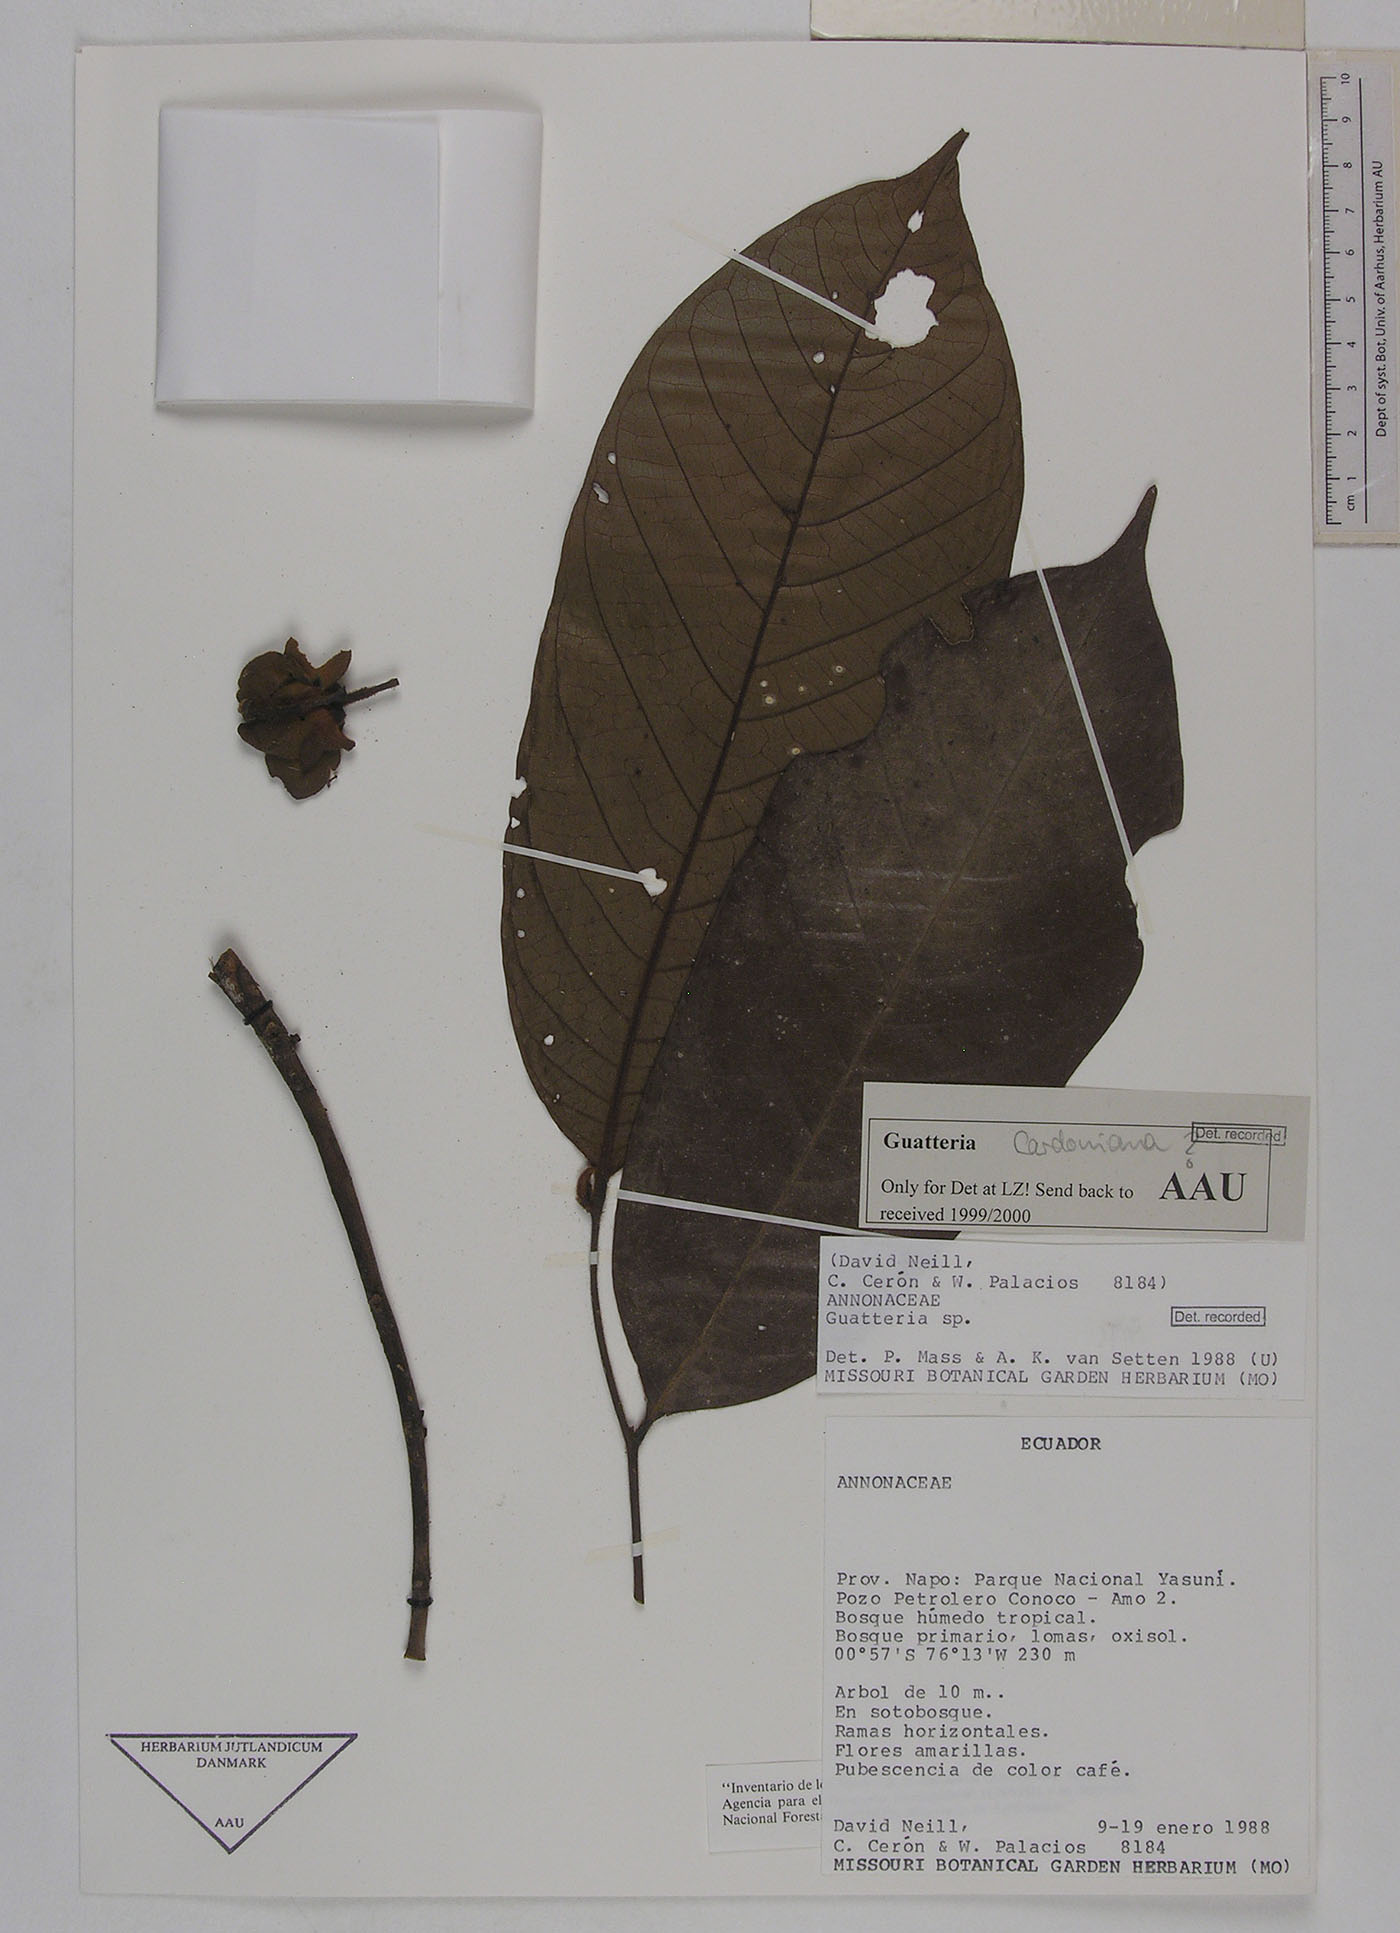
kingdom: Plantae
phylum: Tracheophyta
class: Magnoliopsida
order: Magnoliales
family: Annonaceae
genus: Guatteria
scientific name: Guatteria blepharophylla
